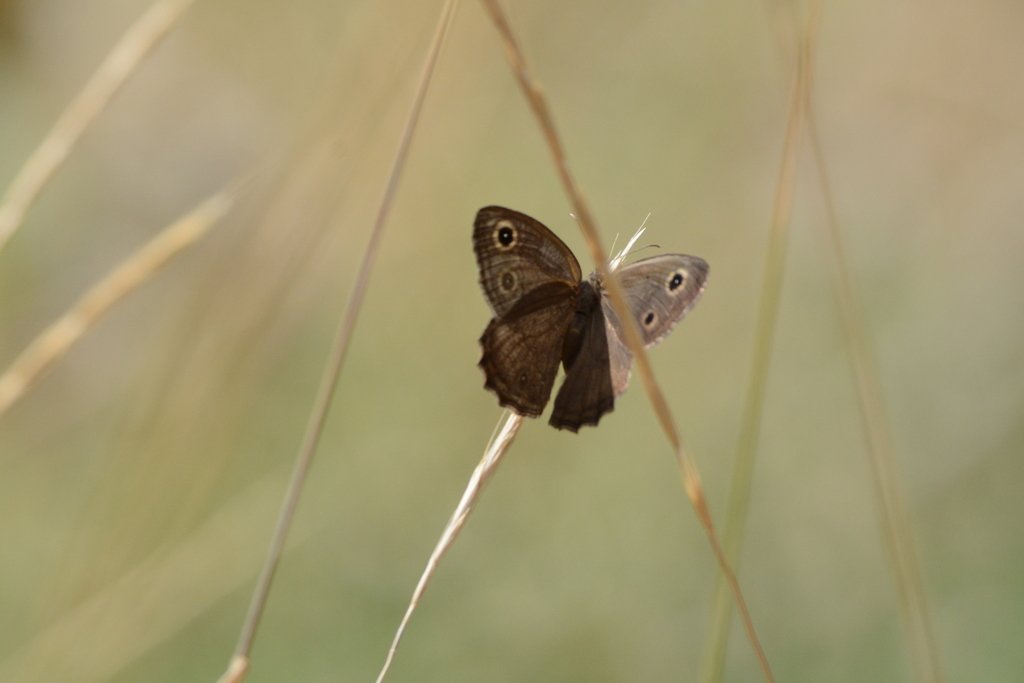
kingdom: Animalia
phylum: Arthropoda
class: Insecta
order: Lepidoptera
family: Nymphalidae
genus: Cercyonis
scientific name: Cercyonis sthenele
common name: Great Basin Wood-Nymph
